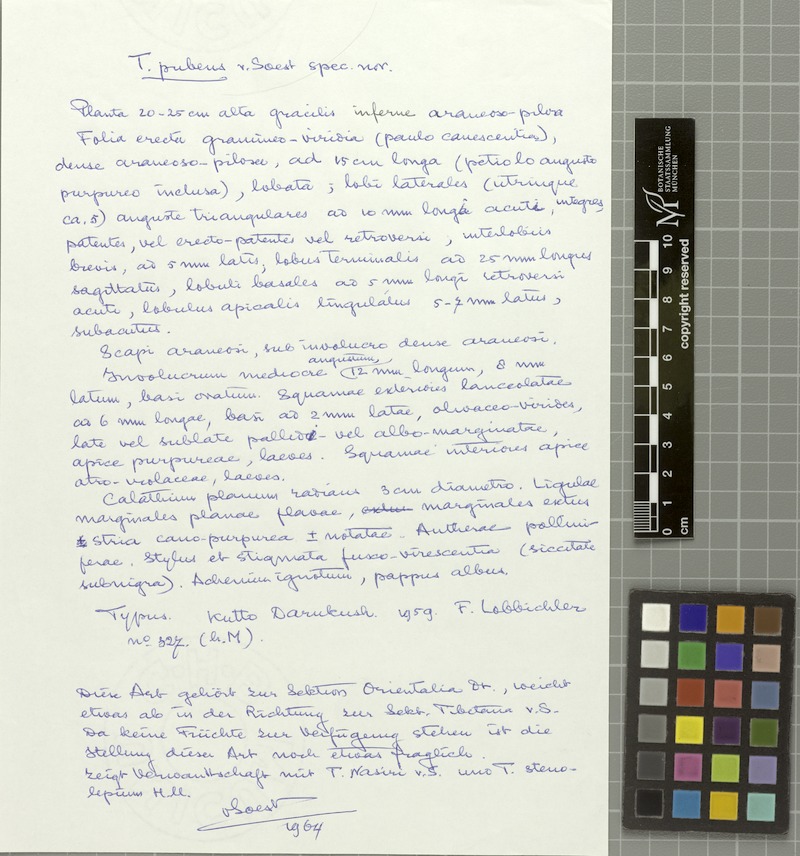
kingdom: Plantae
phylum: Tracheophyta
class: Magnoliopsida
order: Asterales
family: Asteraceae
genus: Taraxacum
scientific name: Taraxacum pubens
